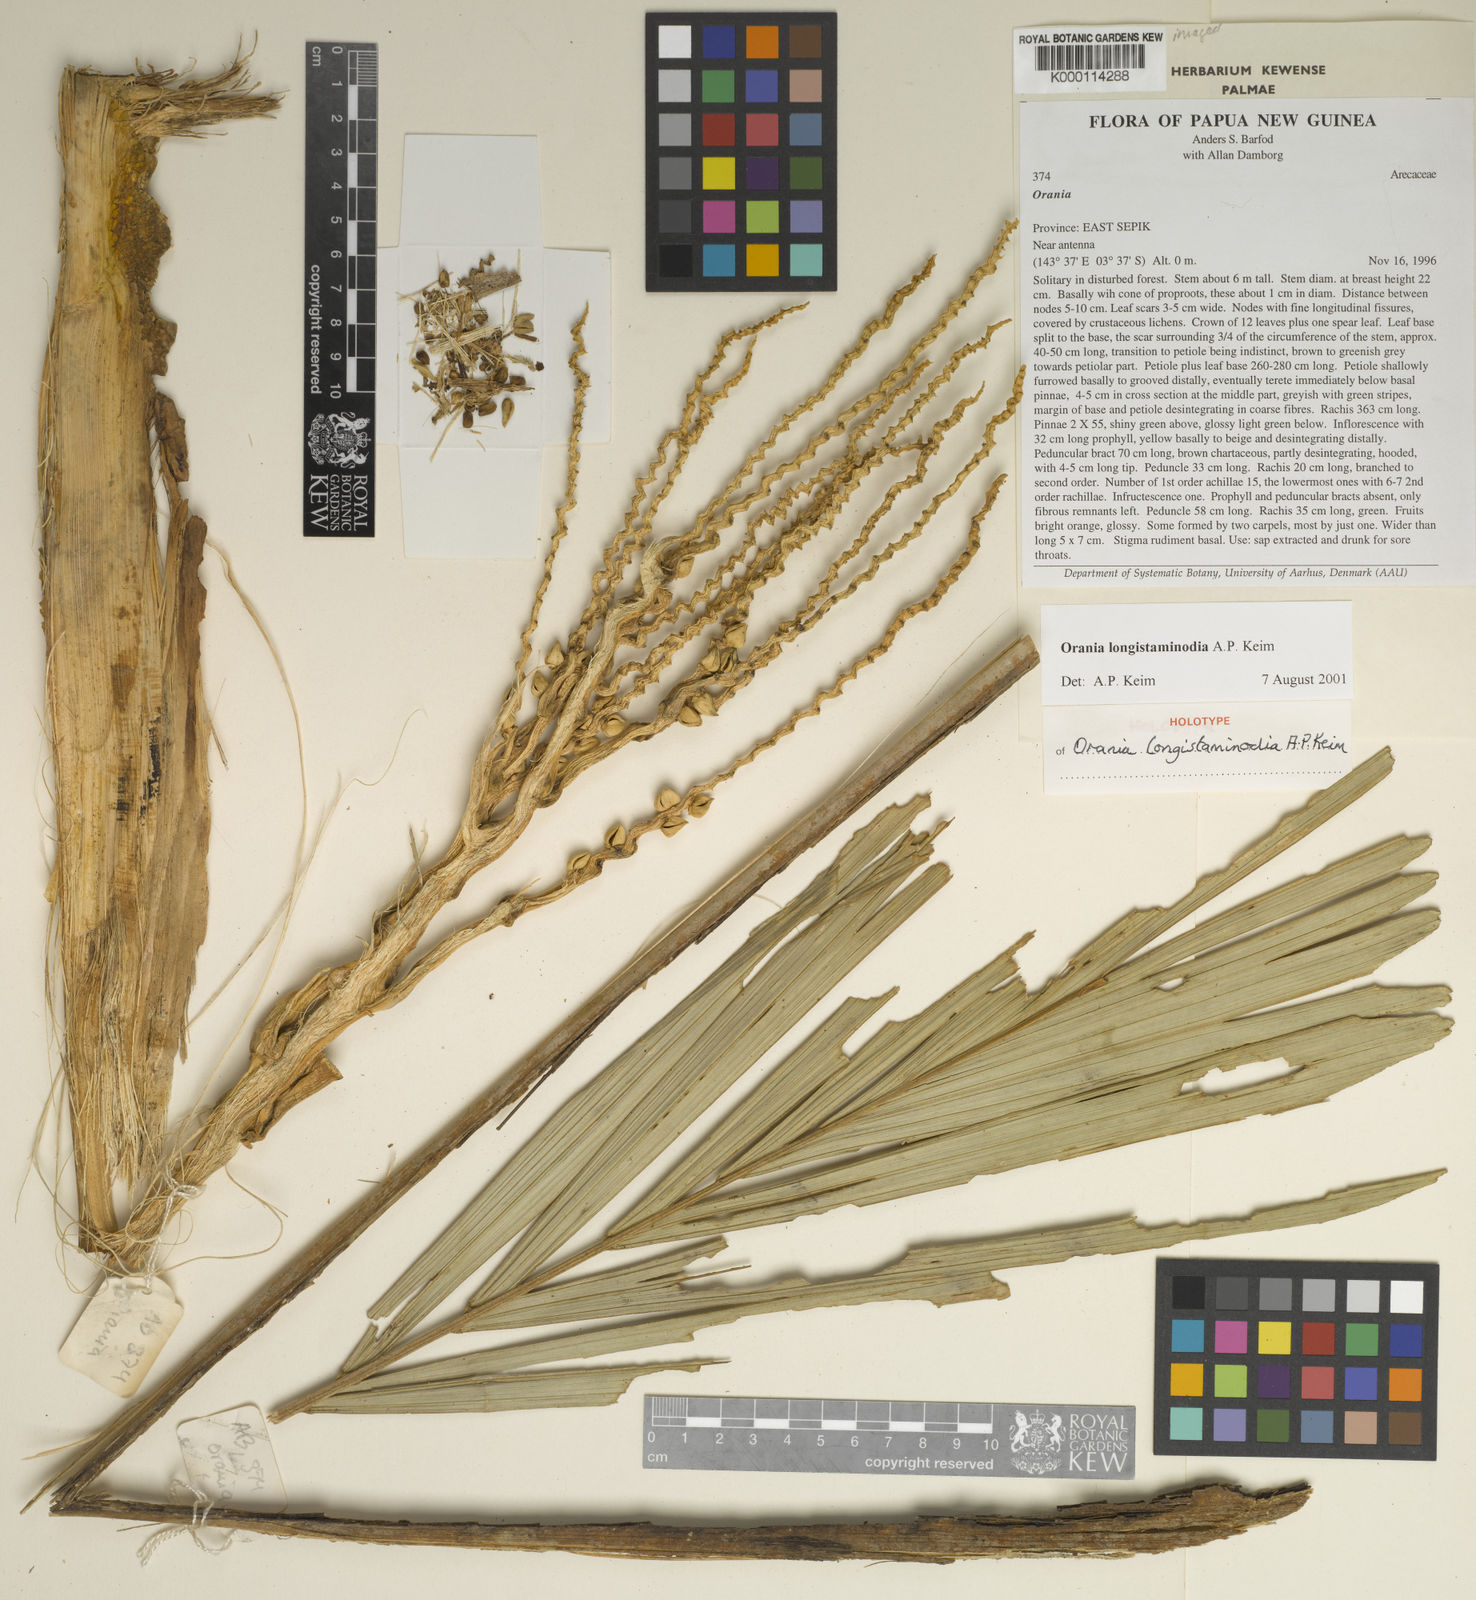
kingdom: Plantae
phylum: Tracheophyta
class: Liliopsida
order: Arecales
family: Arecaceae
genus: Orania
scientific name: Orania longistaminodia
